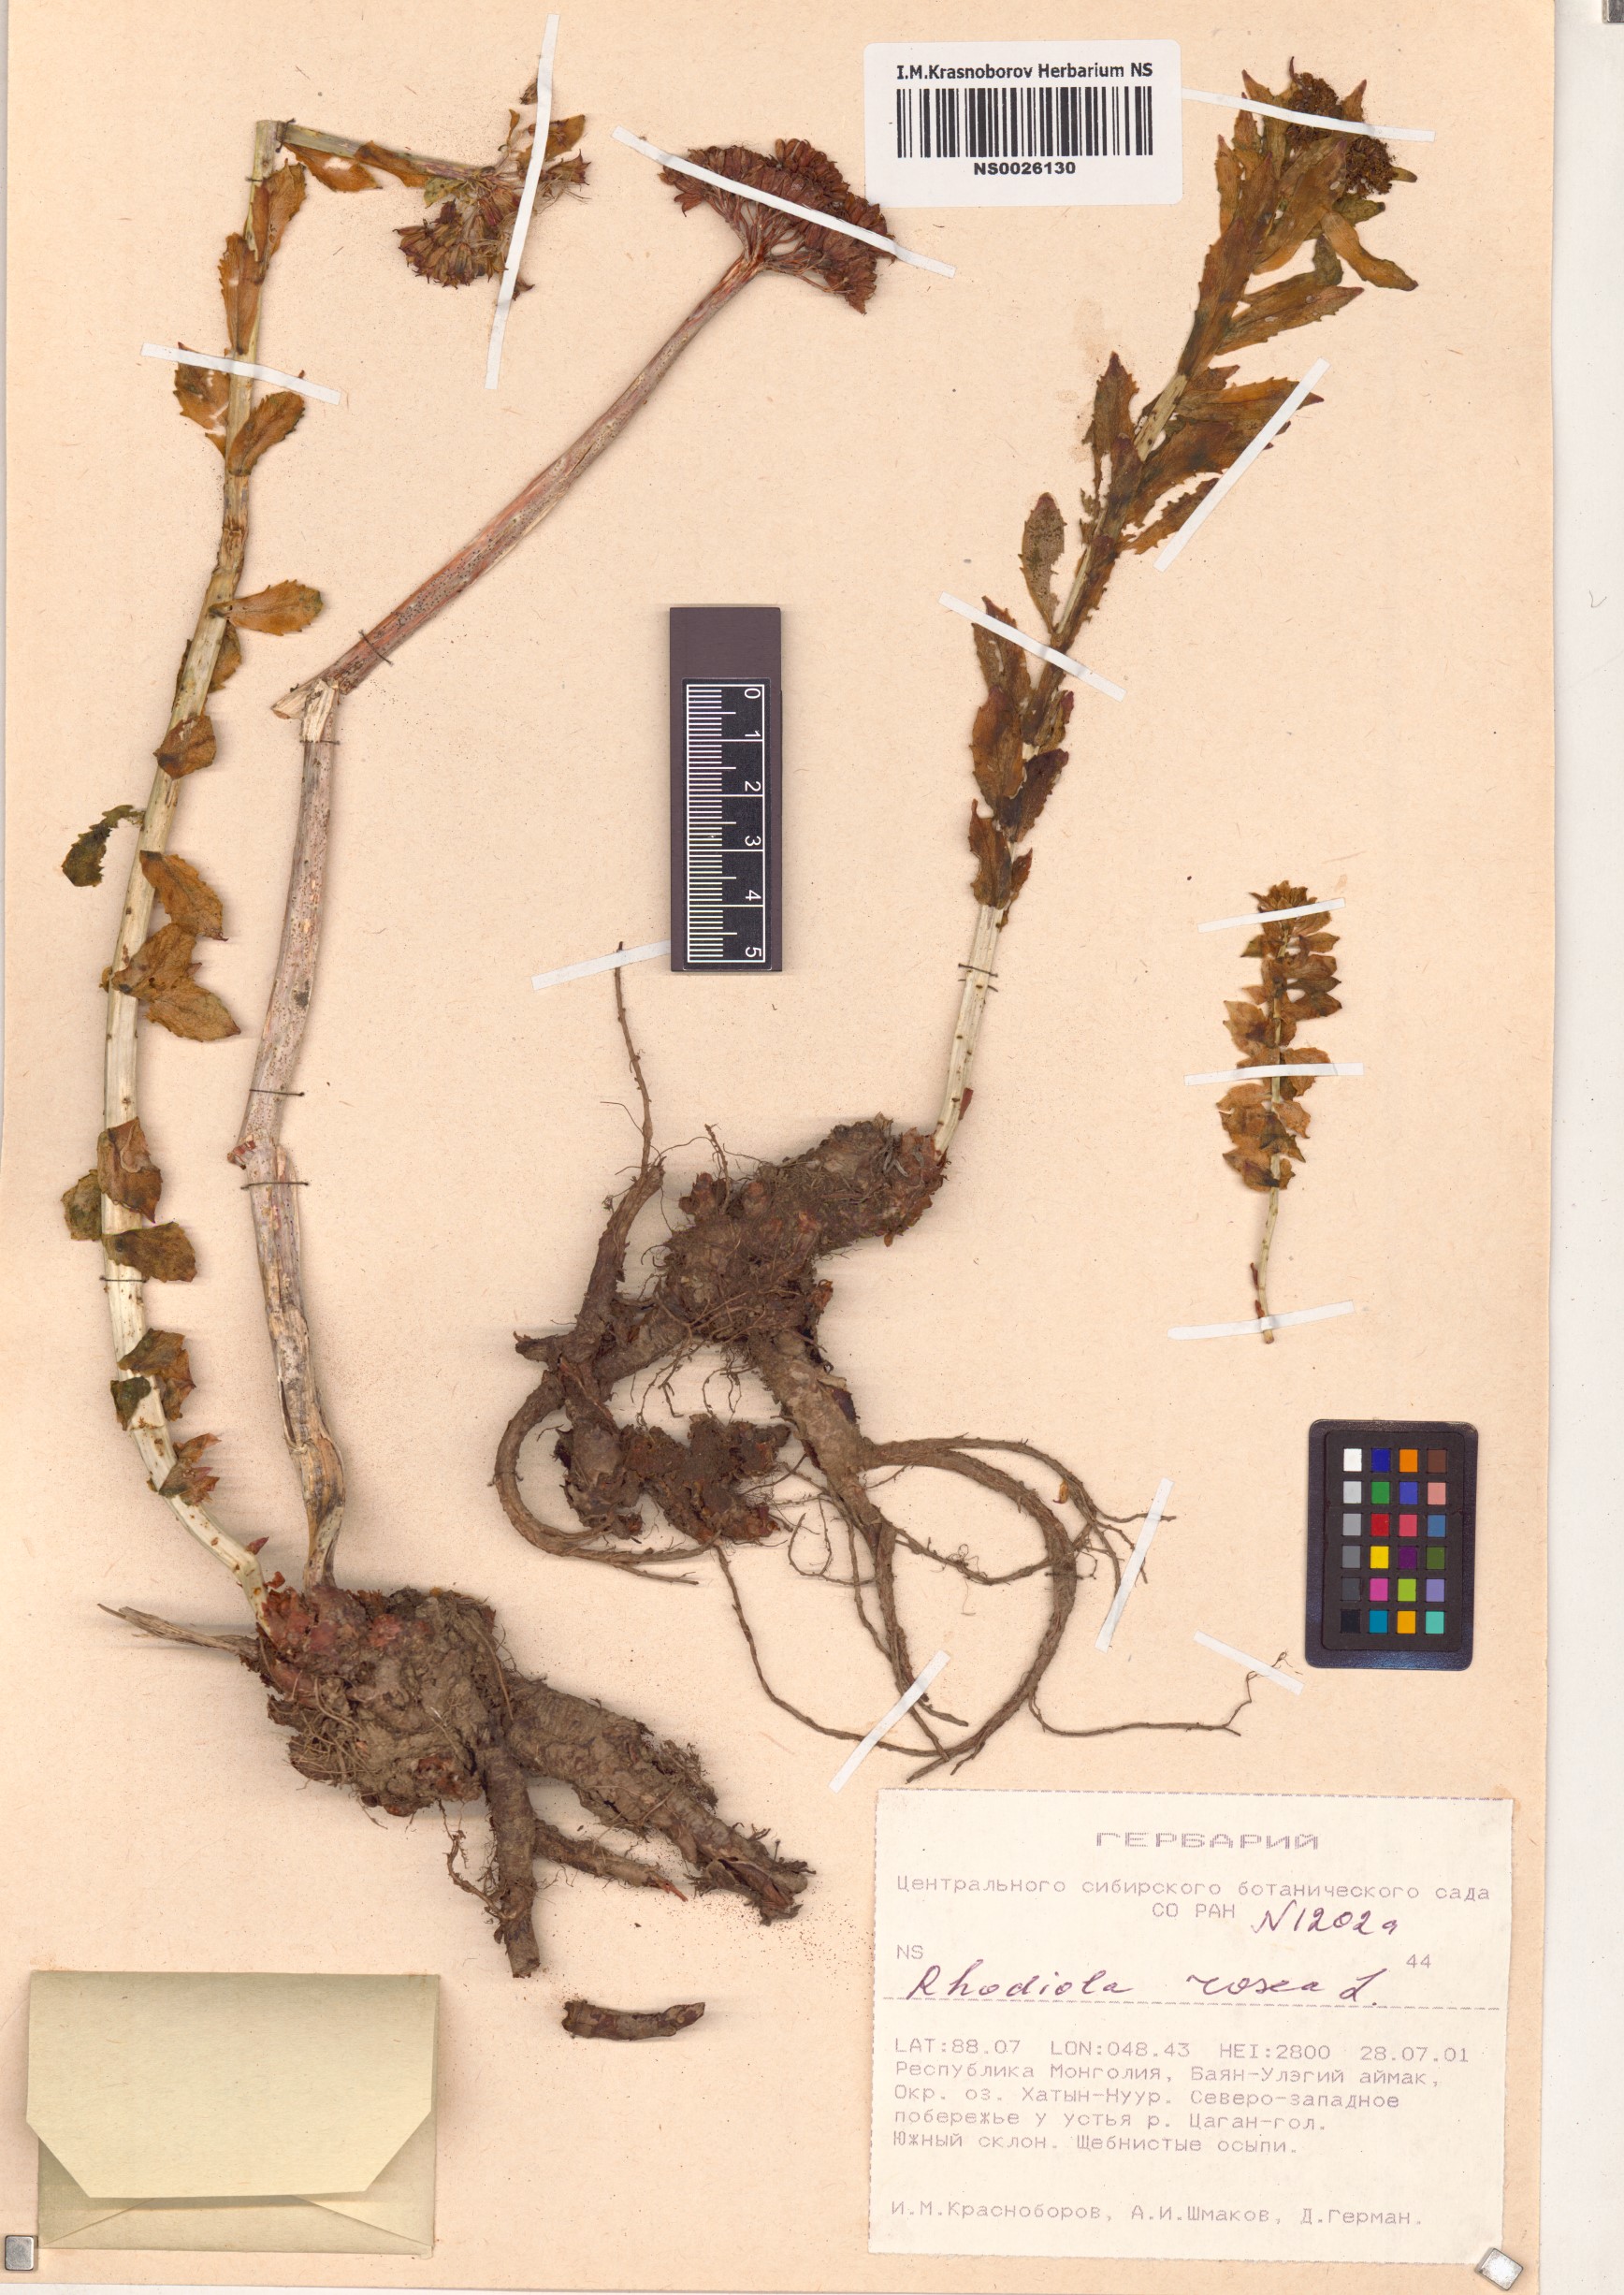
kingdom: Plantae
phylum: Tracheophyta
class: Magnoliopsida
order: Saxifragales
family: Crassulaceae
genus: Rhodiola
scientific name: Rhodiola rosea
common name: Roseroot
